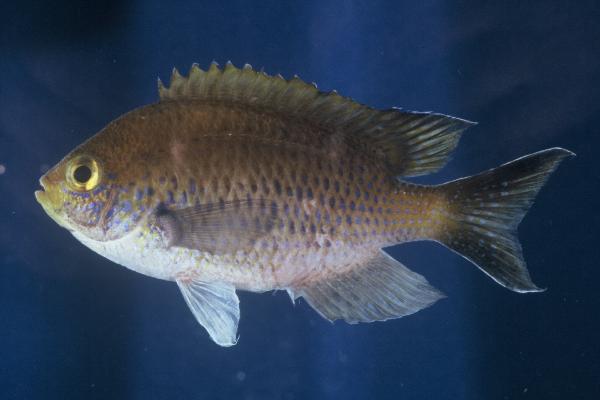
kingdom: Animalia
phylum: Chordata
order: Perciformes
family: Pomacentridae
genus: Chromis
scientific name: Chromis dasygenys
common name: Blue-spotted chromis
